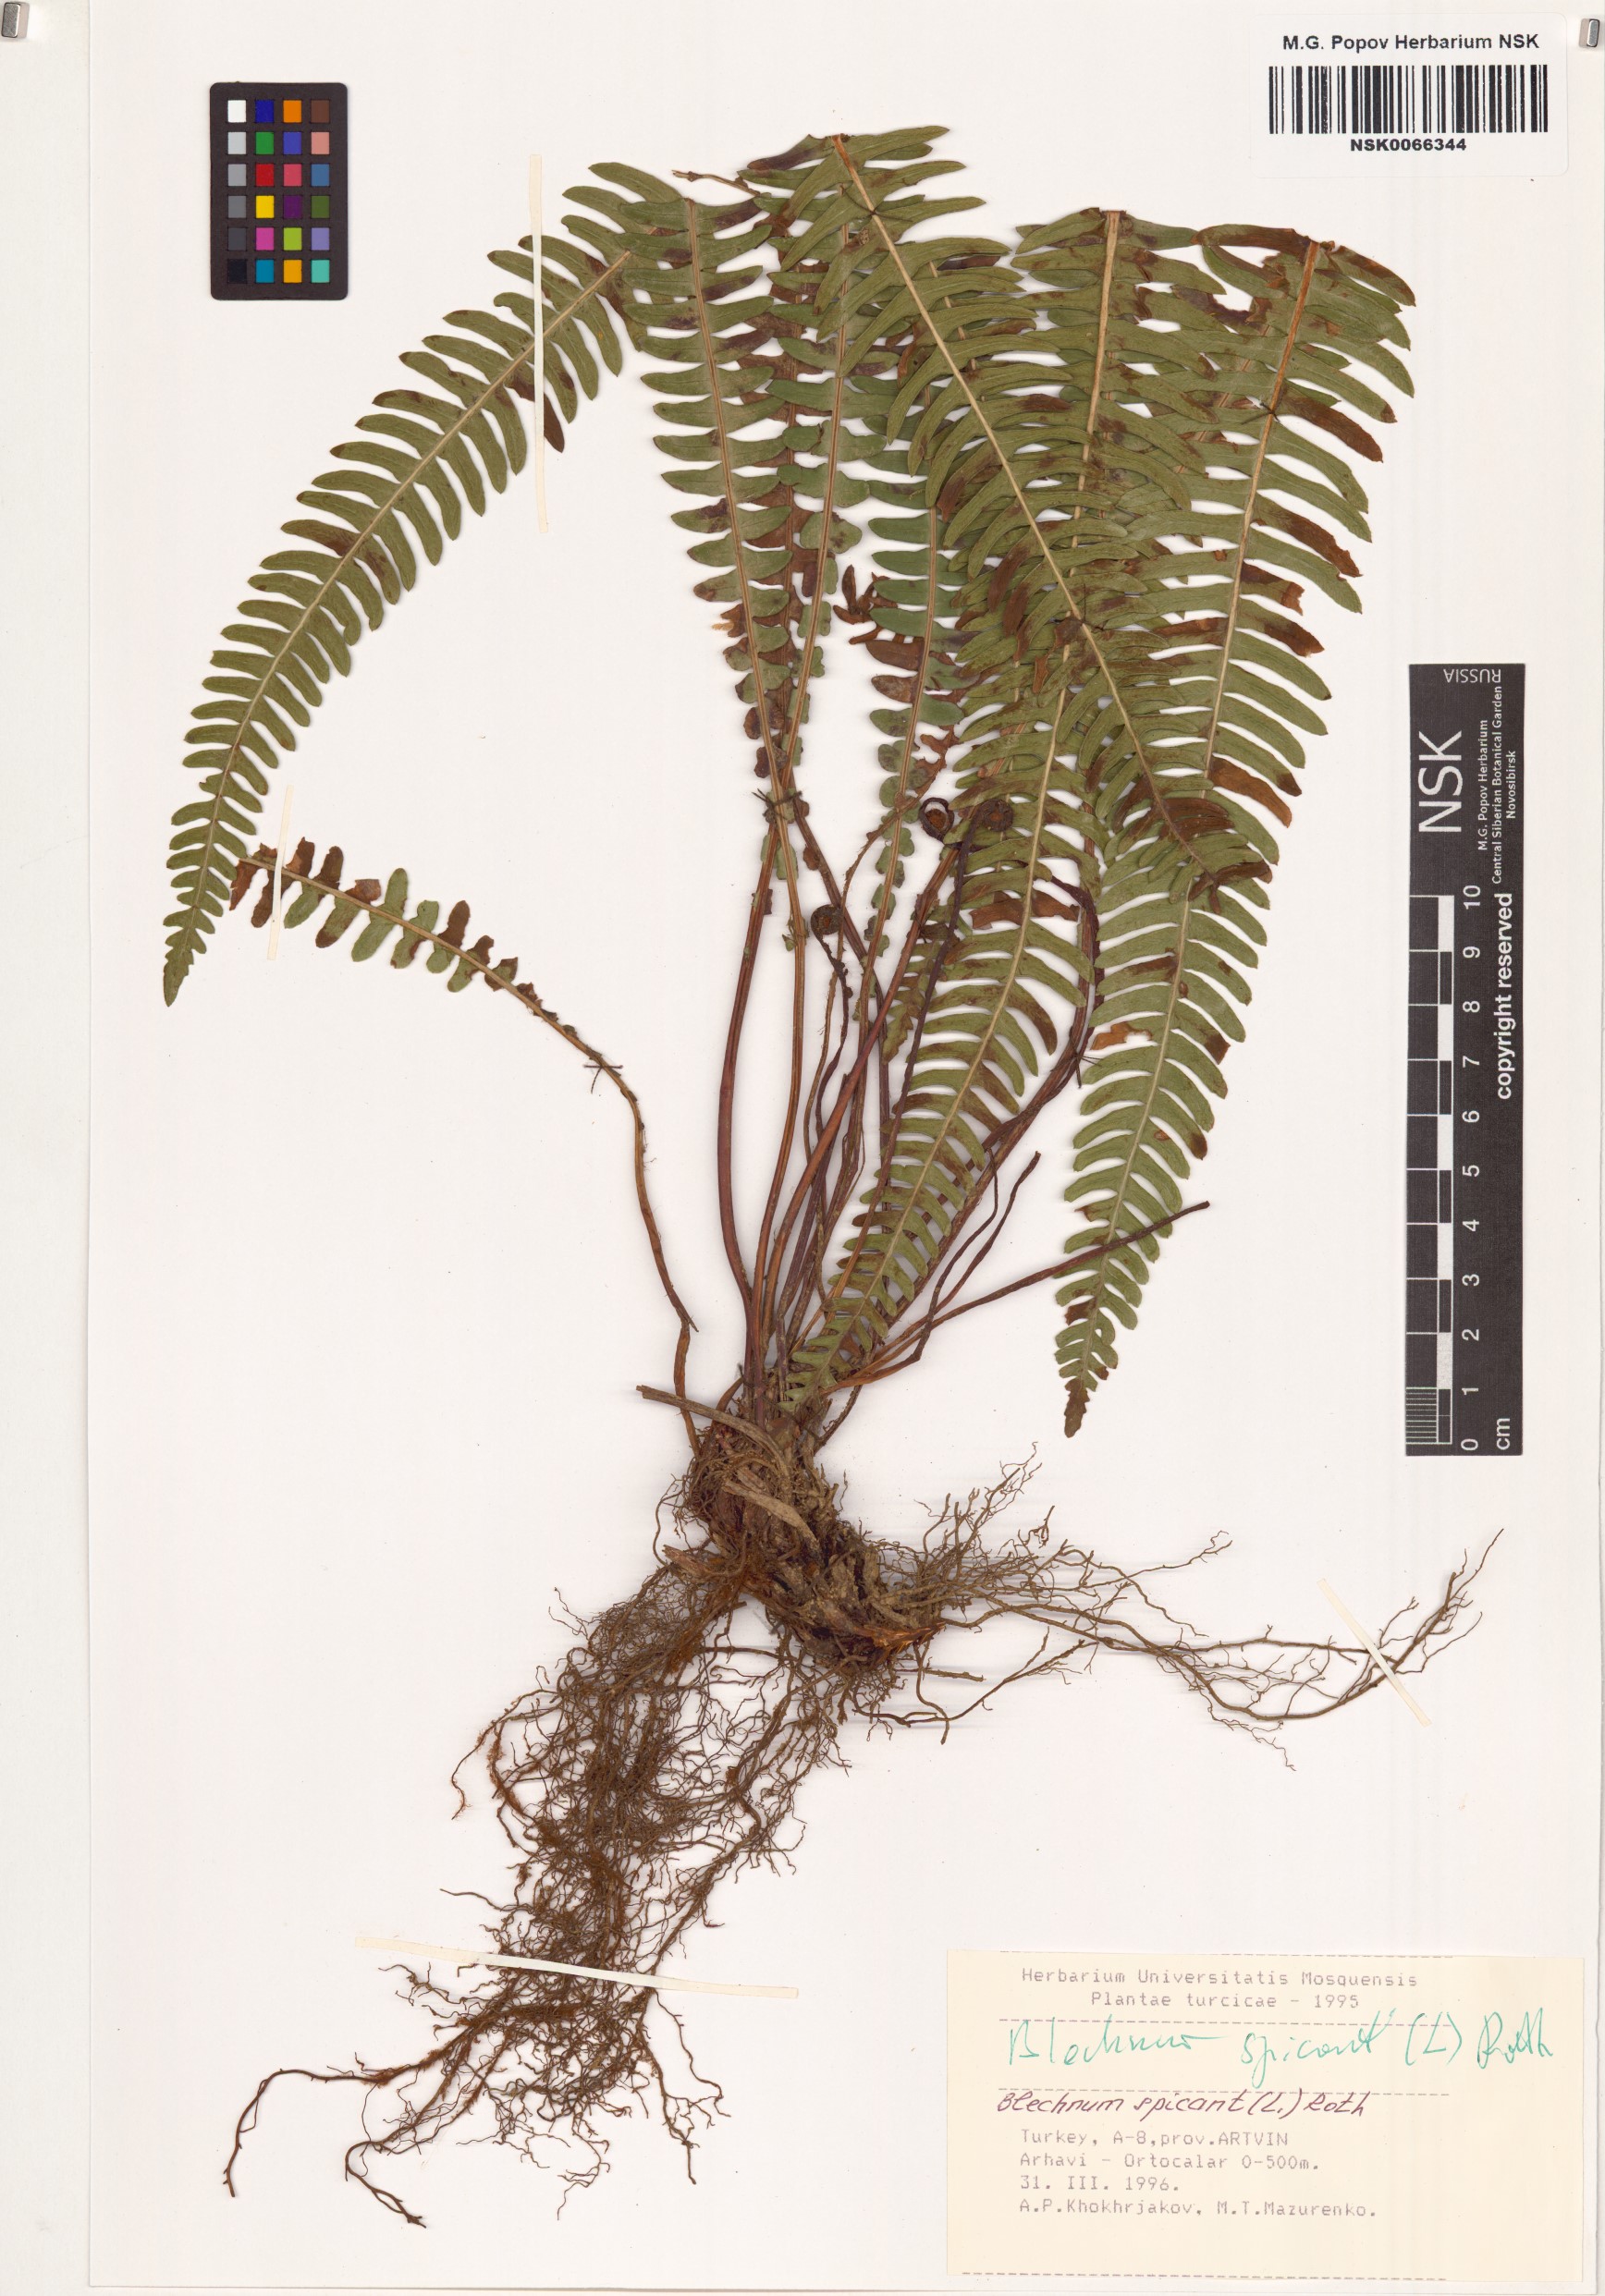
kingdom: Plantae
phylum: Tracheophyta
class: Polypodiopsida
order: Polypodiales
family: Blechnaceae
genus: Struthiopteris
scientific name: Struthiopteris spicant
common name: Deer fern
